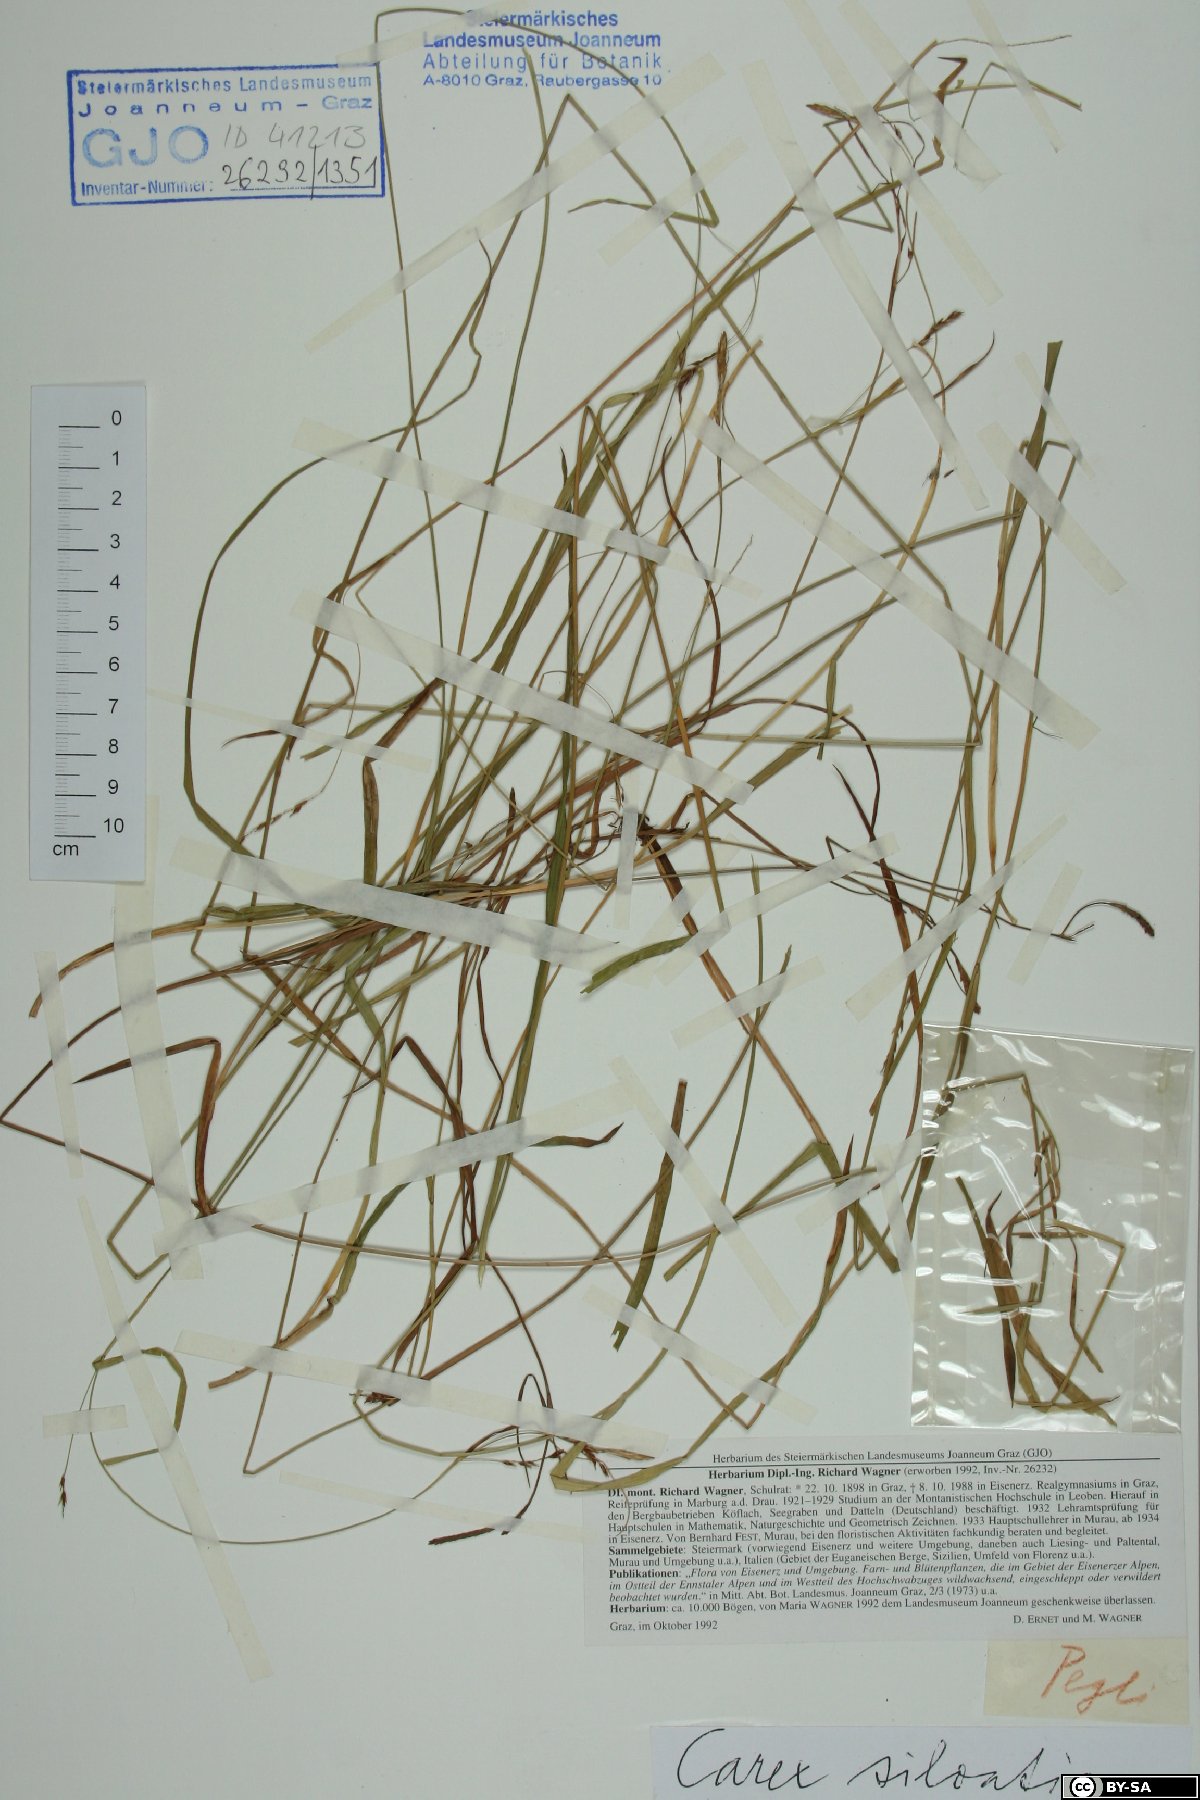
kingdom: Plantae
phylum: Tracheophyta
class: Liliopsida
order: Poales
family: Cyperaceae
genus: Carex
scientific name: Carex sylvatica
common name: Wood-sedge
